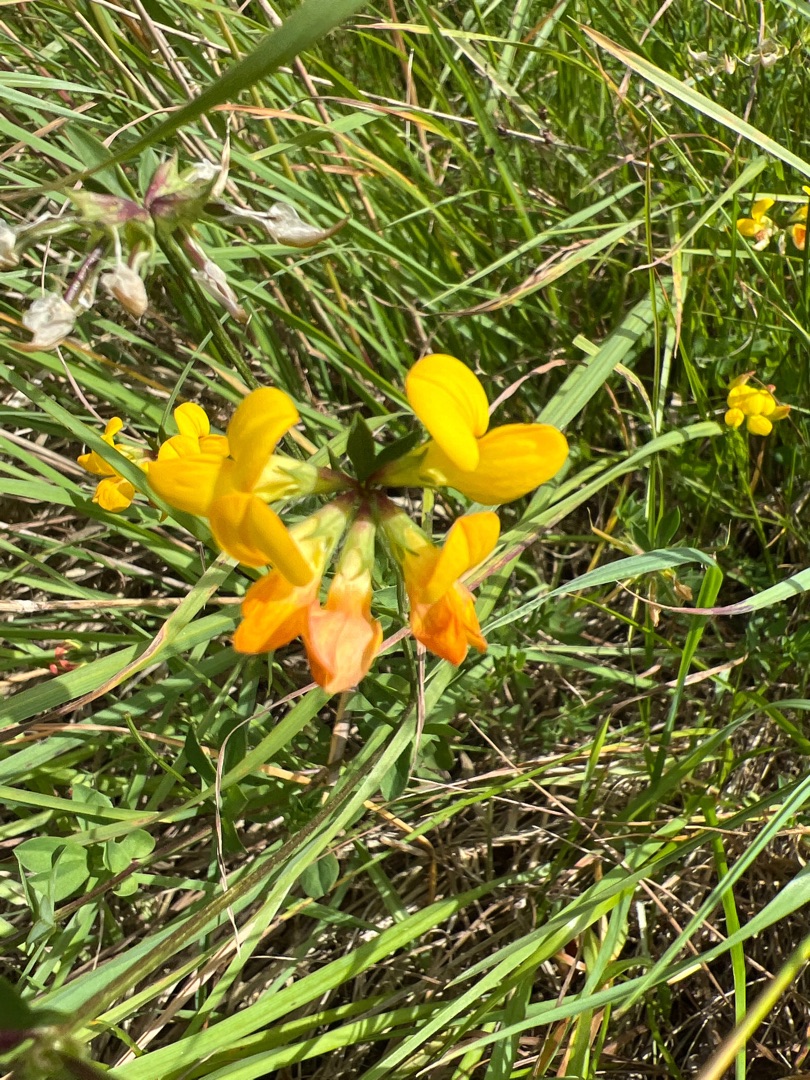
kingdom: Plantae
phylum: Tracheophyta
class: Magnoliopsida
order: Fabales
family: Fabaceae
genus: Lotus
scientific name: Lotus corniculatus
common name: Almindelig kællingetand
